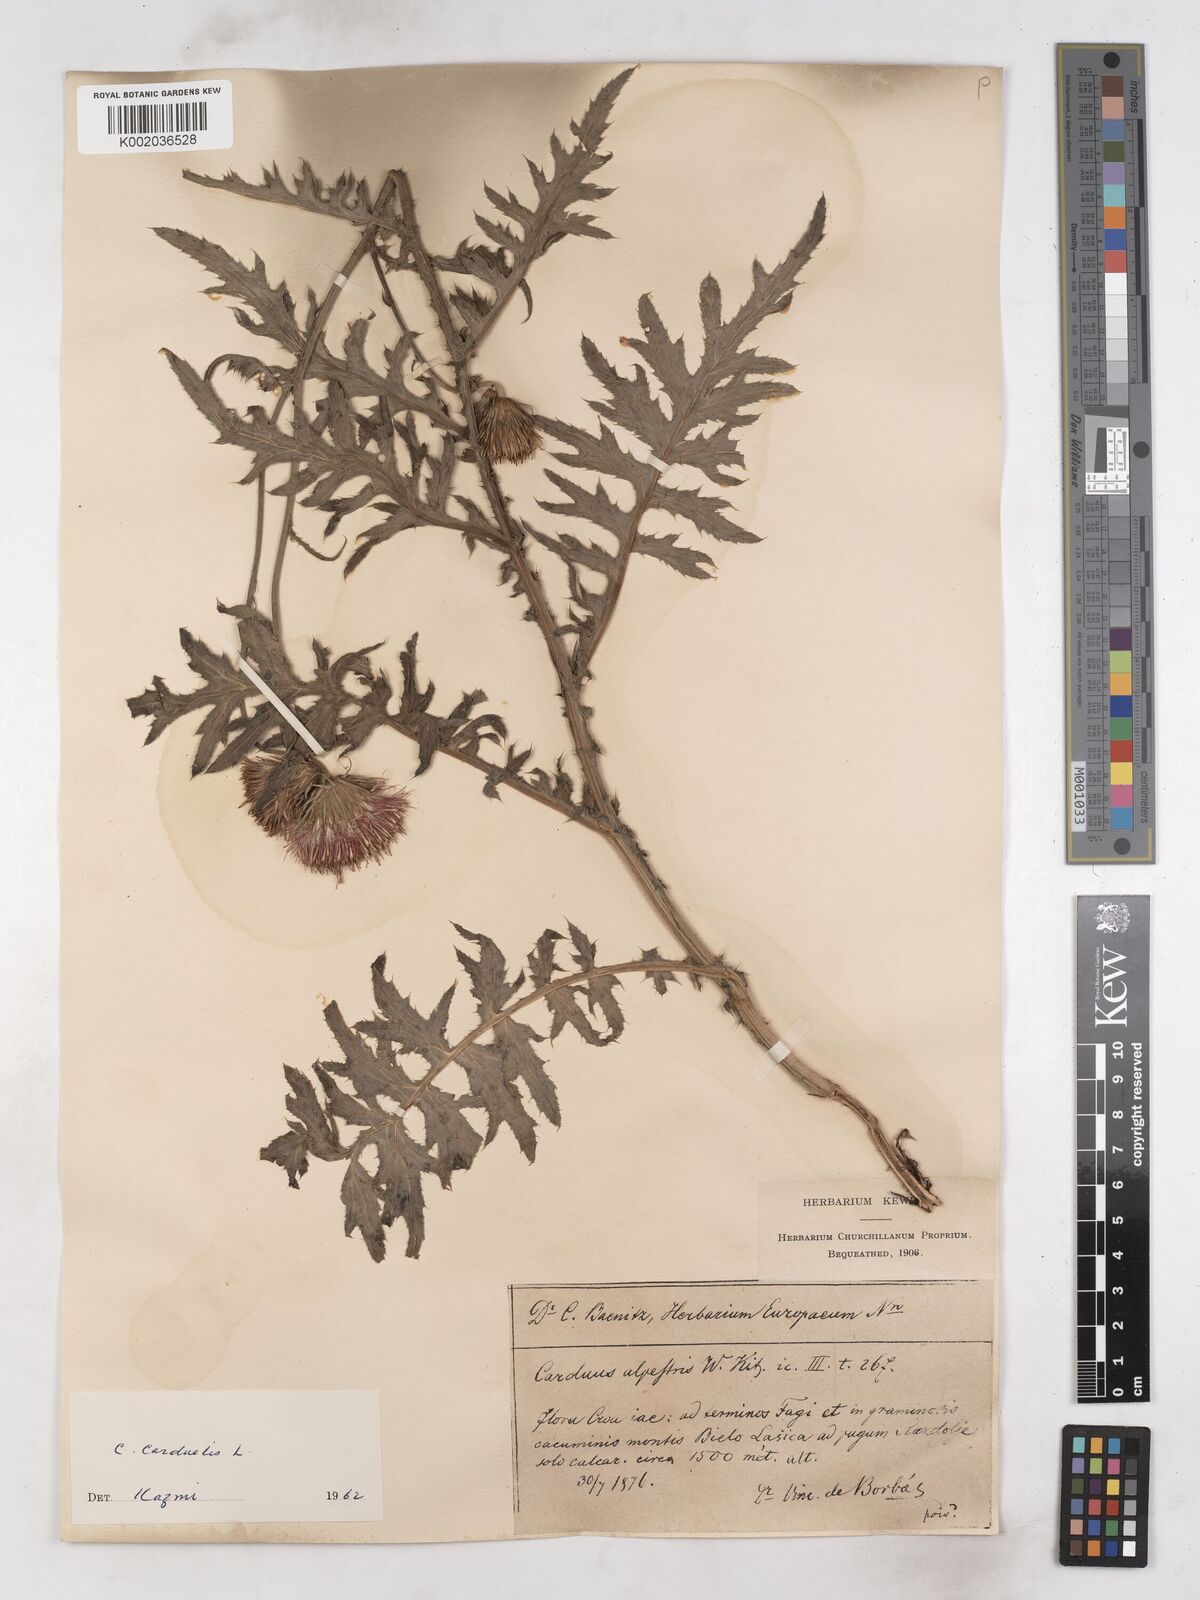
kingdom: Plantae
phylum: Tracheophyta
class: Magnoliopsida
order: Asterales
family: Asteraceae
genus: Carduus
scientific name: Carduus carduelis
